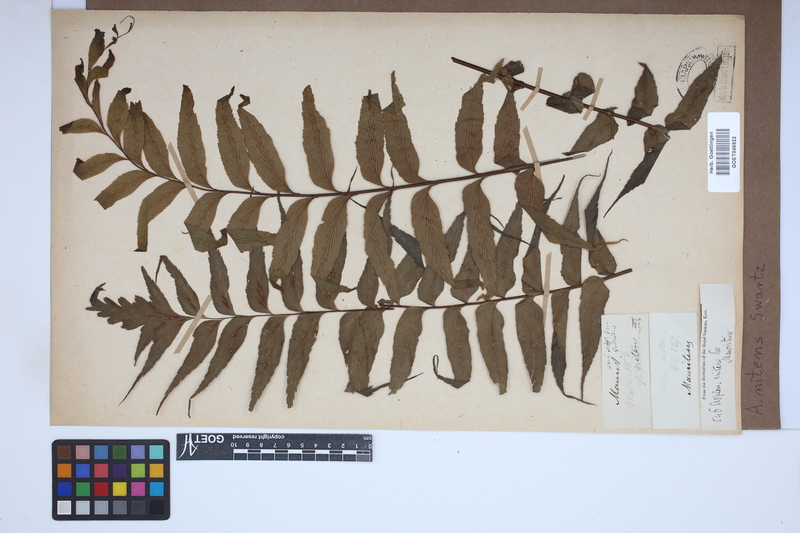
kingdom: Plantae
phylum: Tracheophyta
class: Polypodiopsida
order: Polypodiales
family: Aspleniaceae
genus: Asplenium
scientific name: Asplenium nitens
